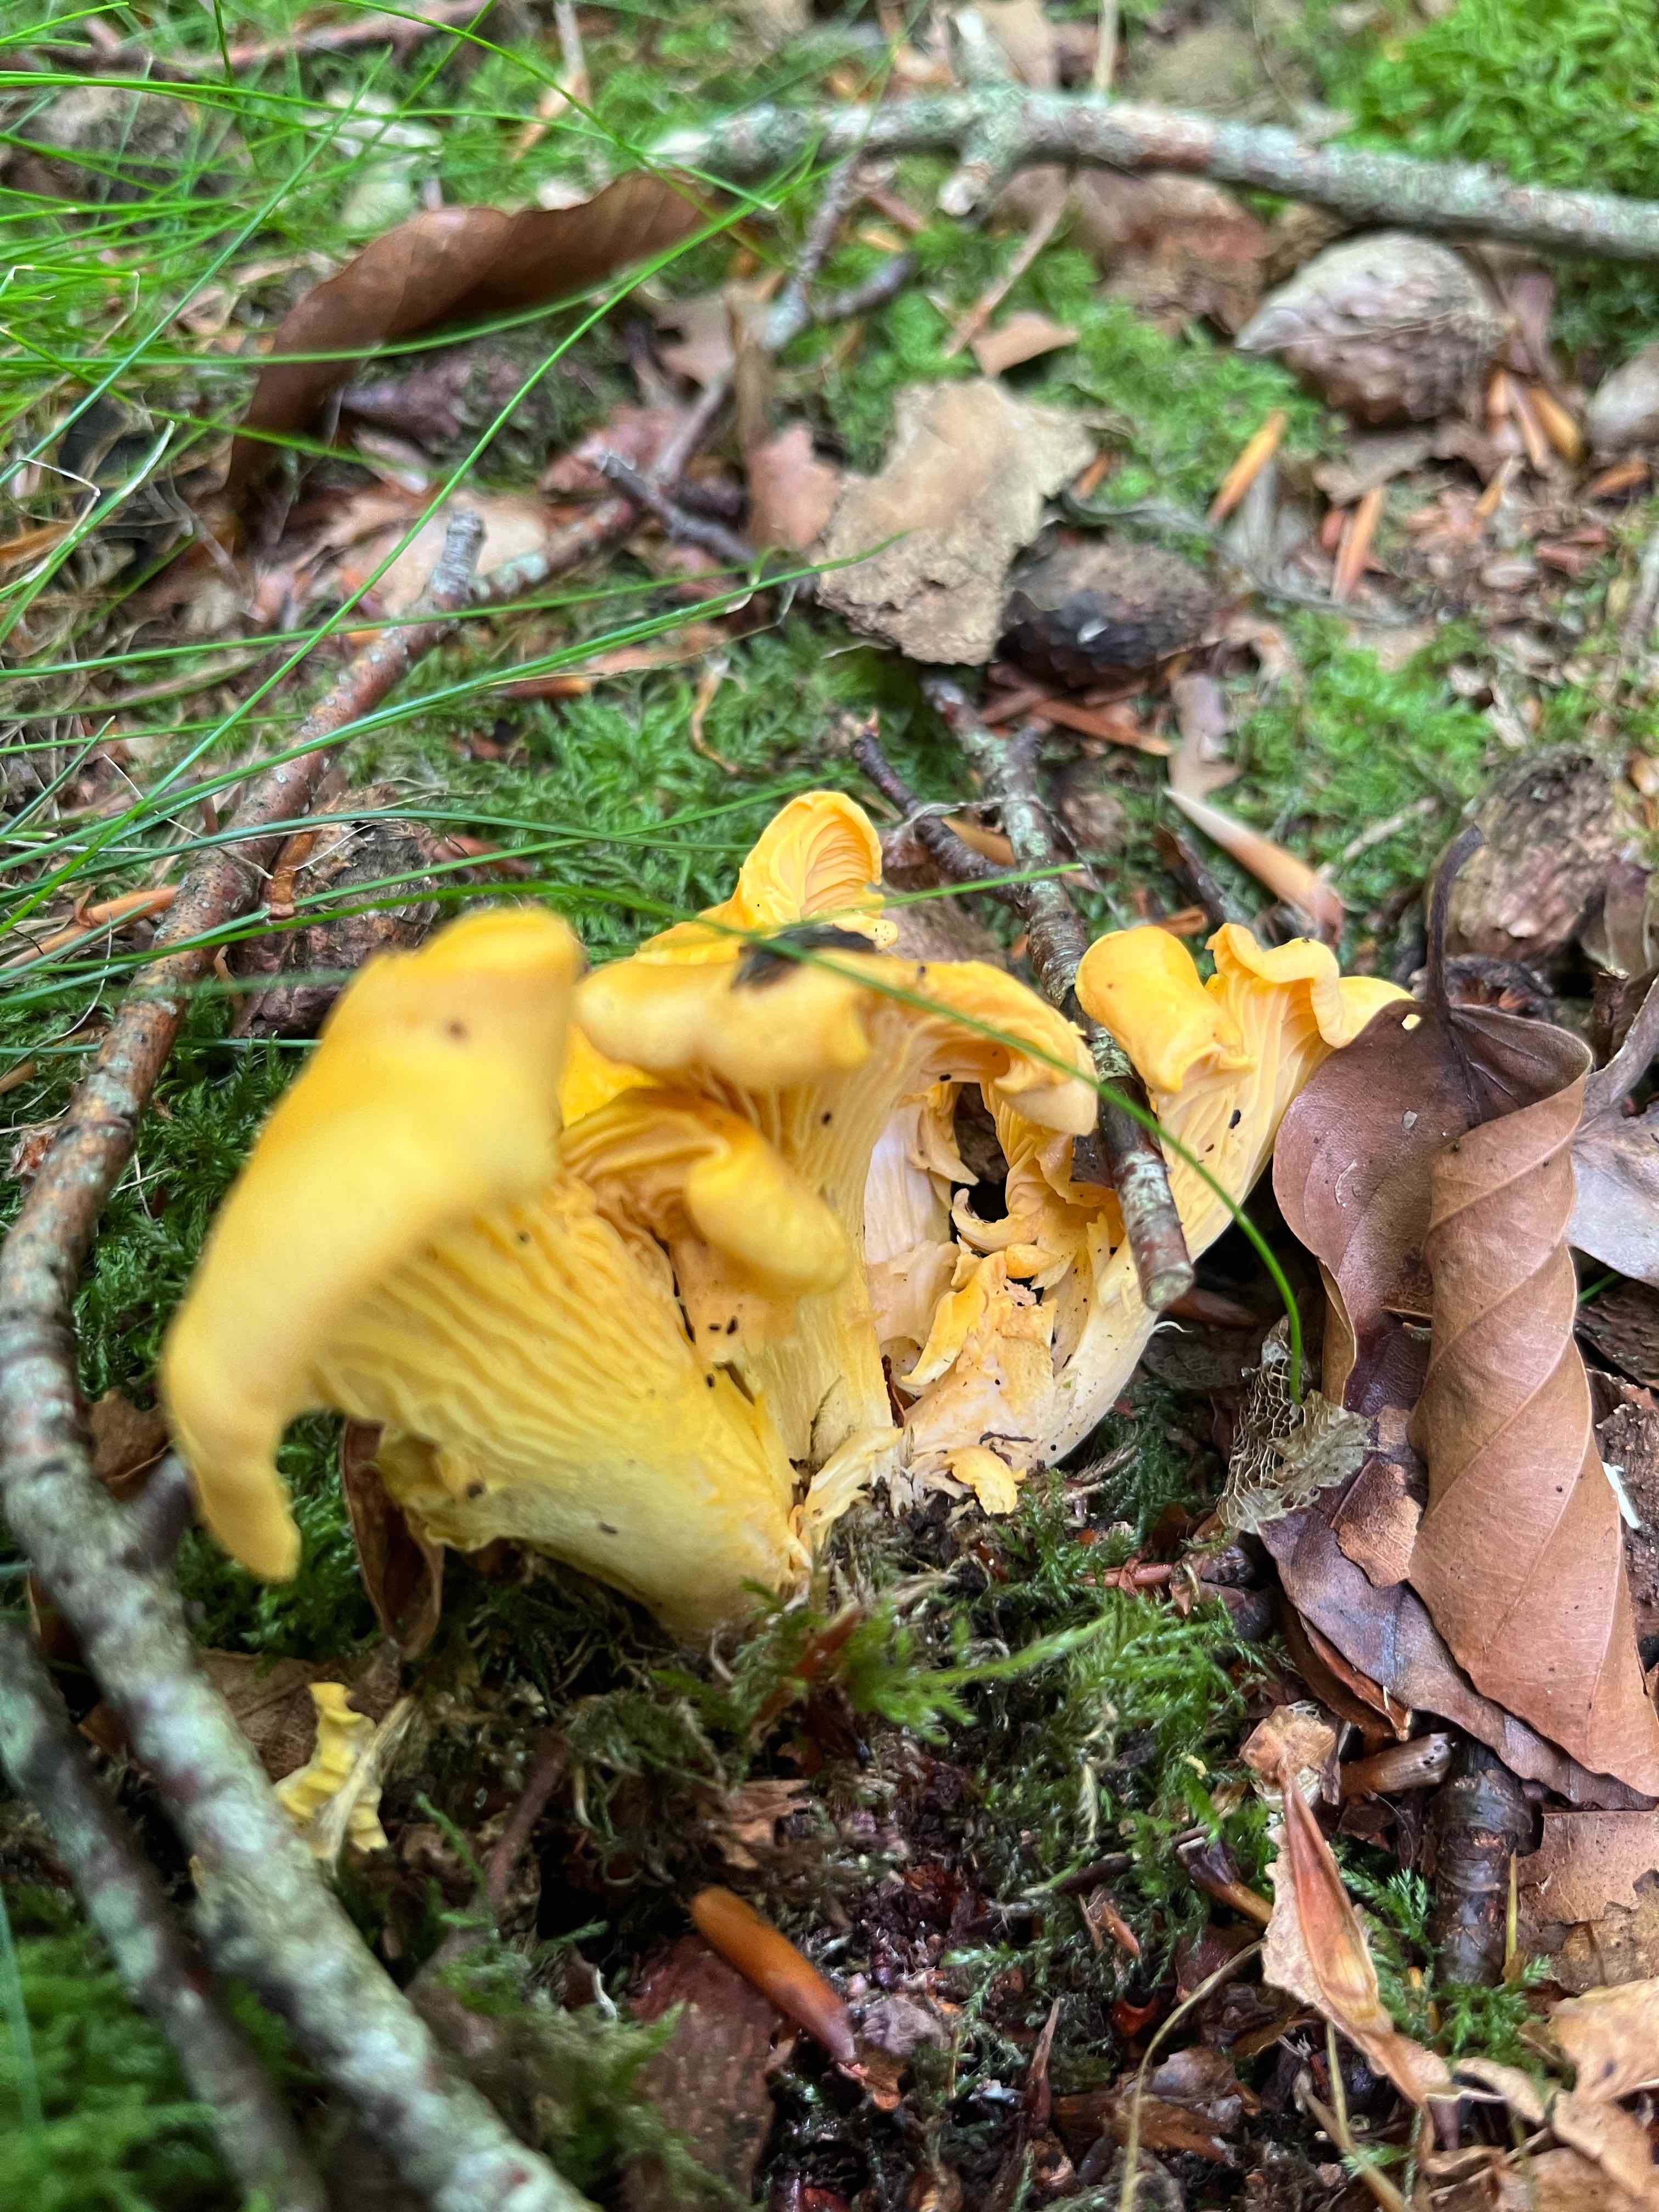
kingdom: Fungi
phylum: Basidiomycota
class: Agaricomycetes
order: Cantharellales
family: Hydnaceae
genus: Cantharellus
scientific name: Cantharellus cibarius
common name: almindelig kantarel
